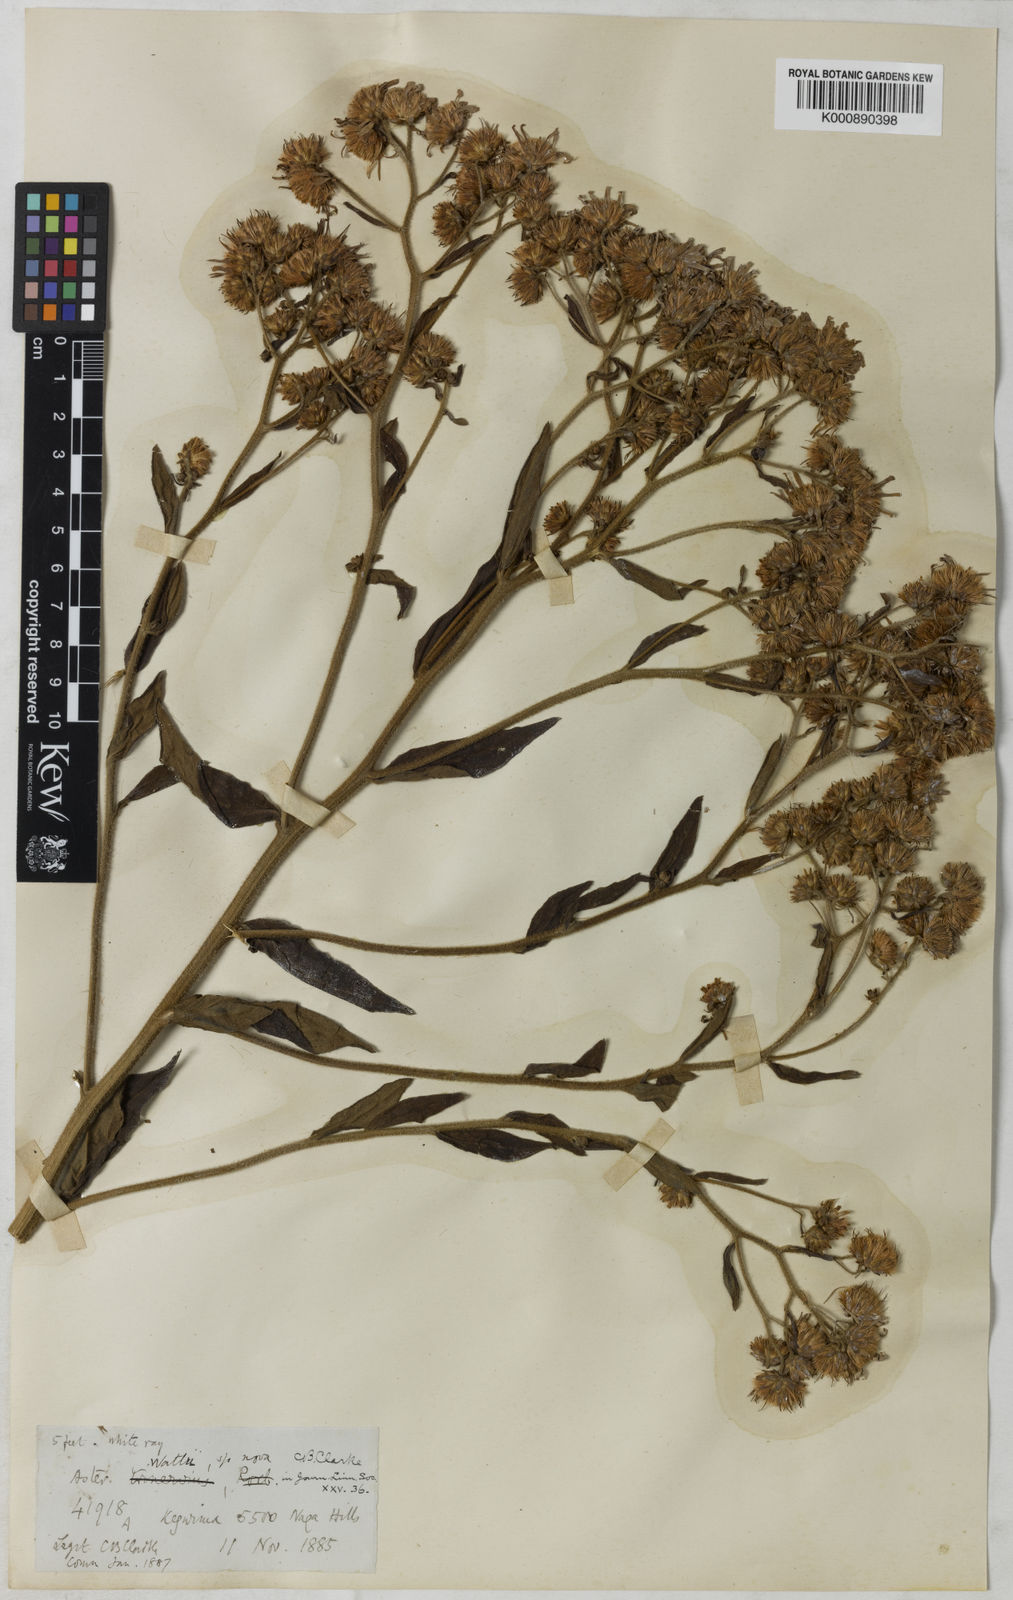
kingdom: Plantae
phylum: Tracheophyta
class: Magnoliopsida
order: Asterales
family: Asteraceae
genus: Aster
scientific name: Aster
